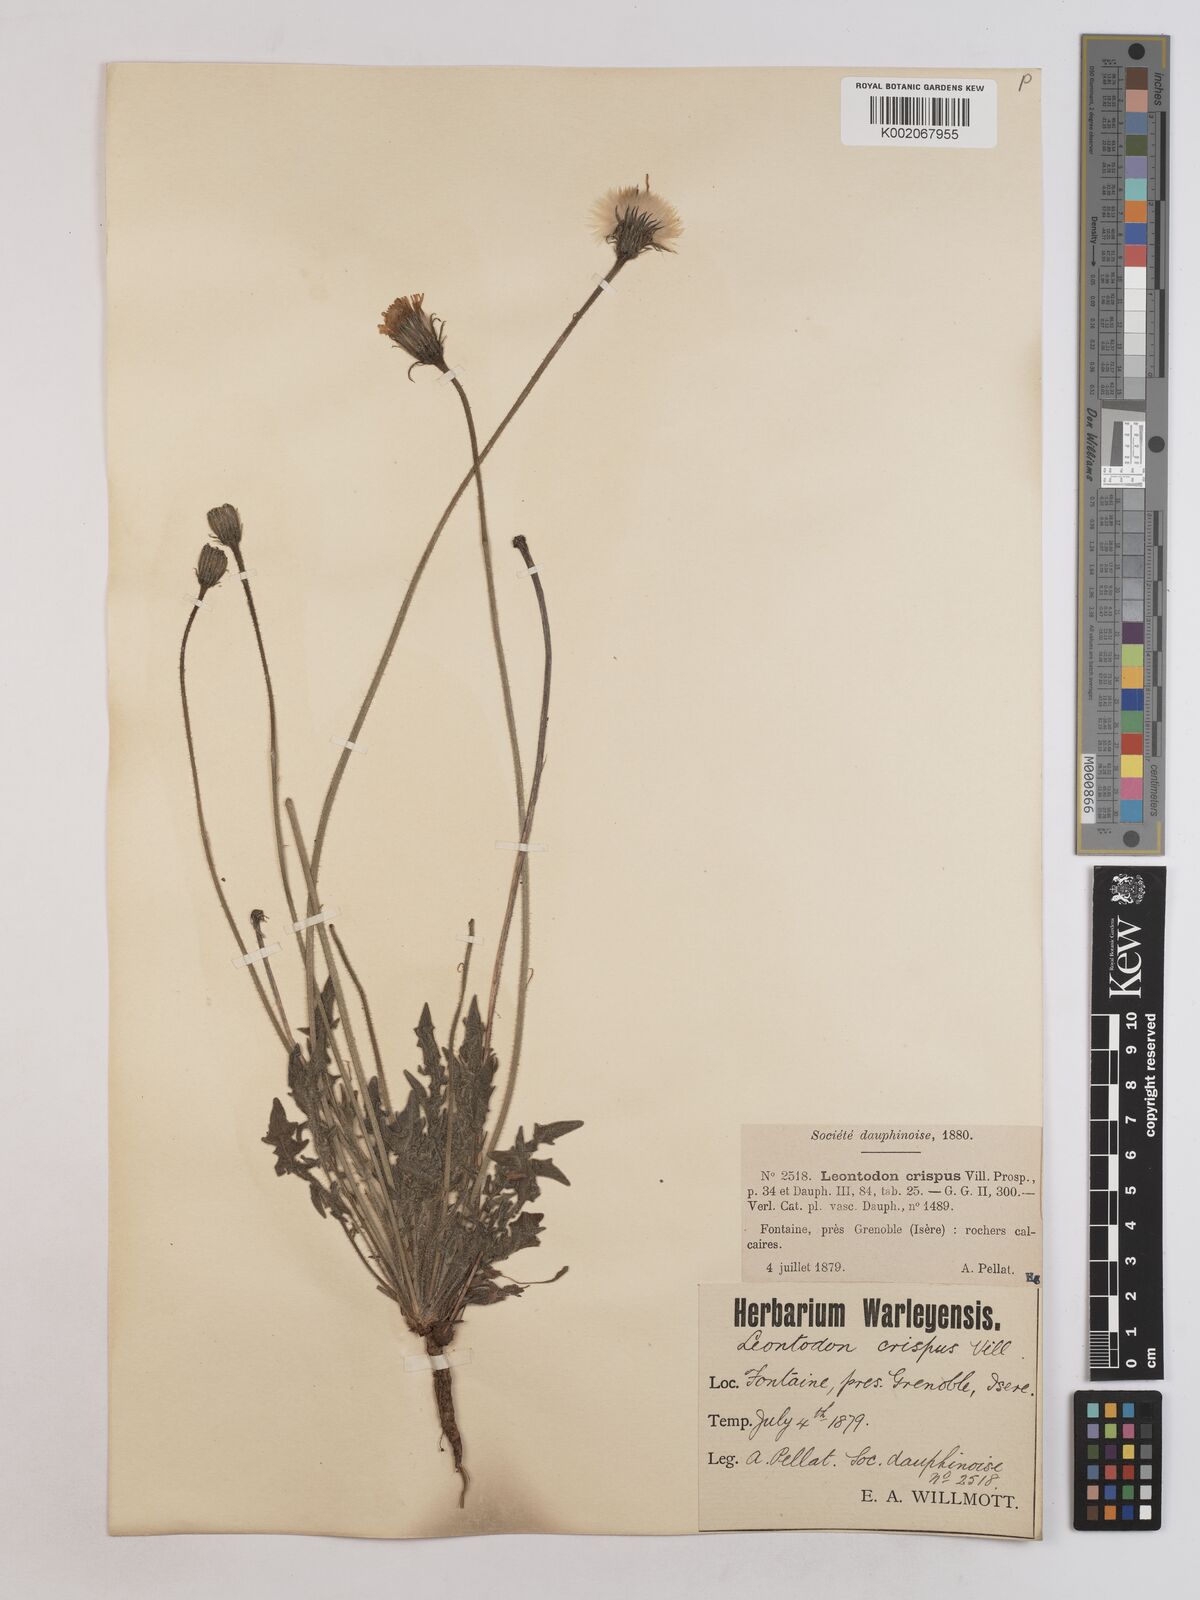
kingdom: Plantae
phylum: Tracheophyta
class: Magnoliopsida
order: Asterales
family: Asteraceae
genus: Leontodon
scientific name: Leontodon crispus
